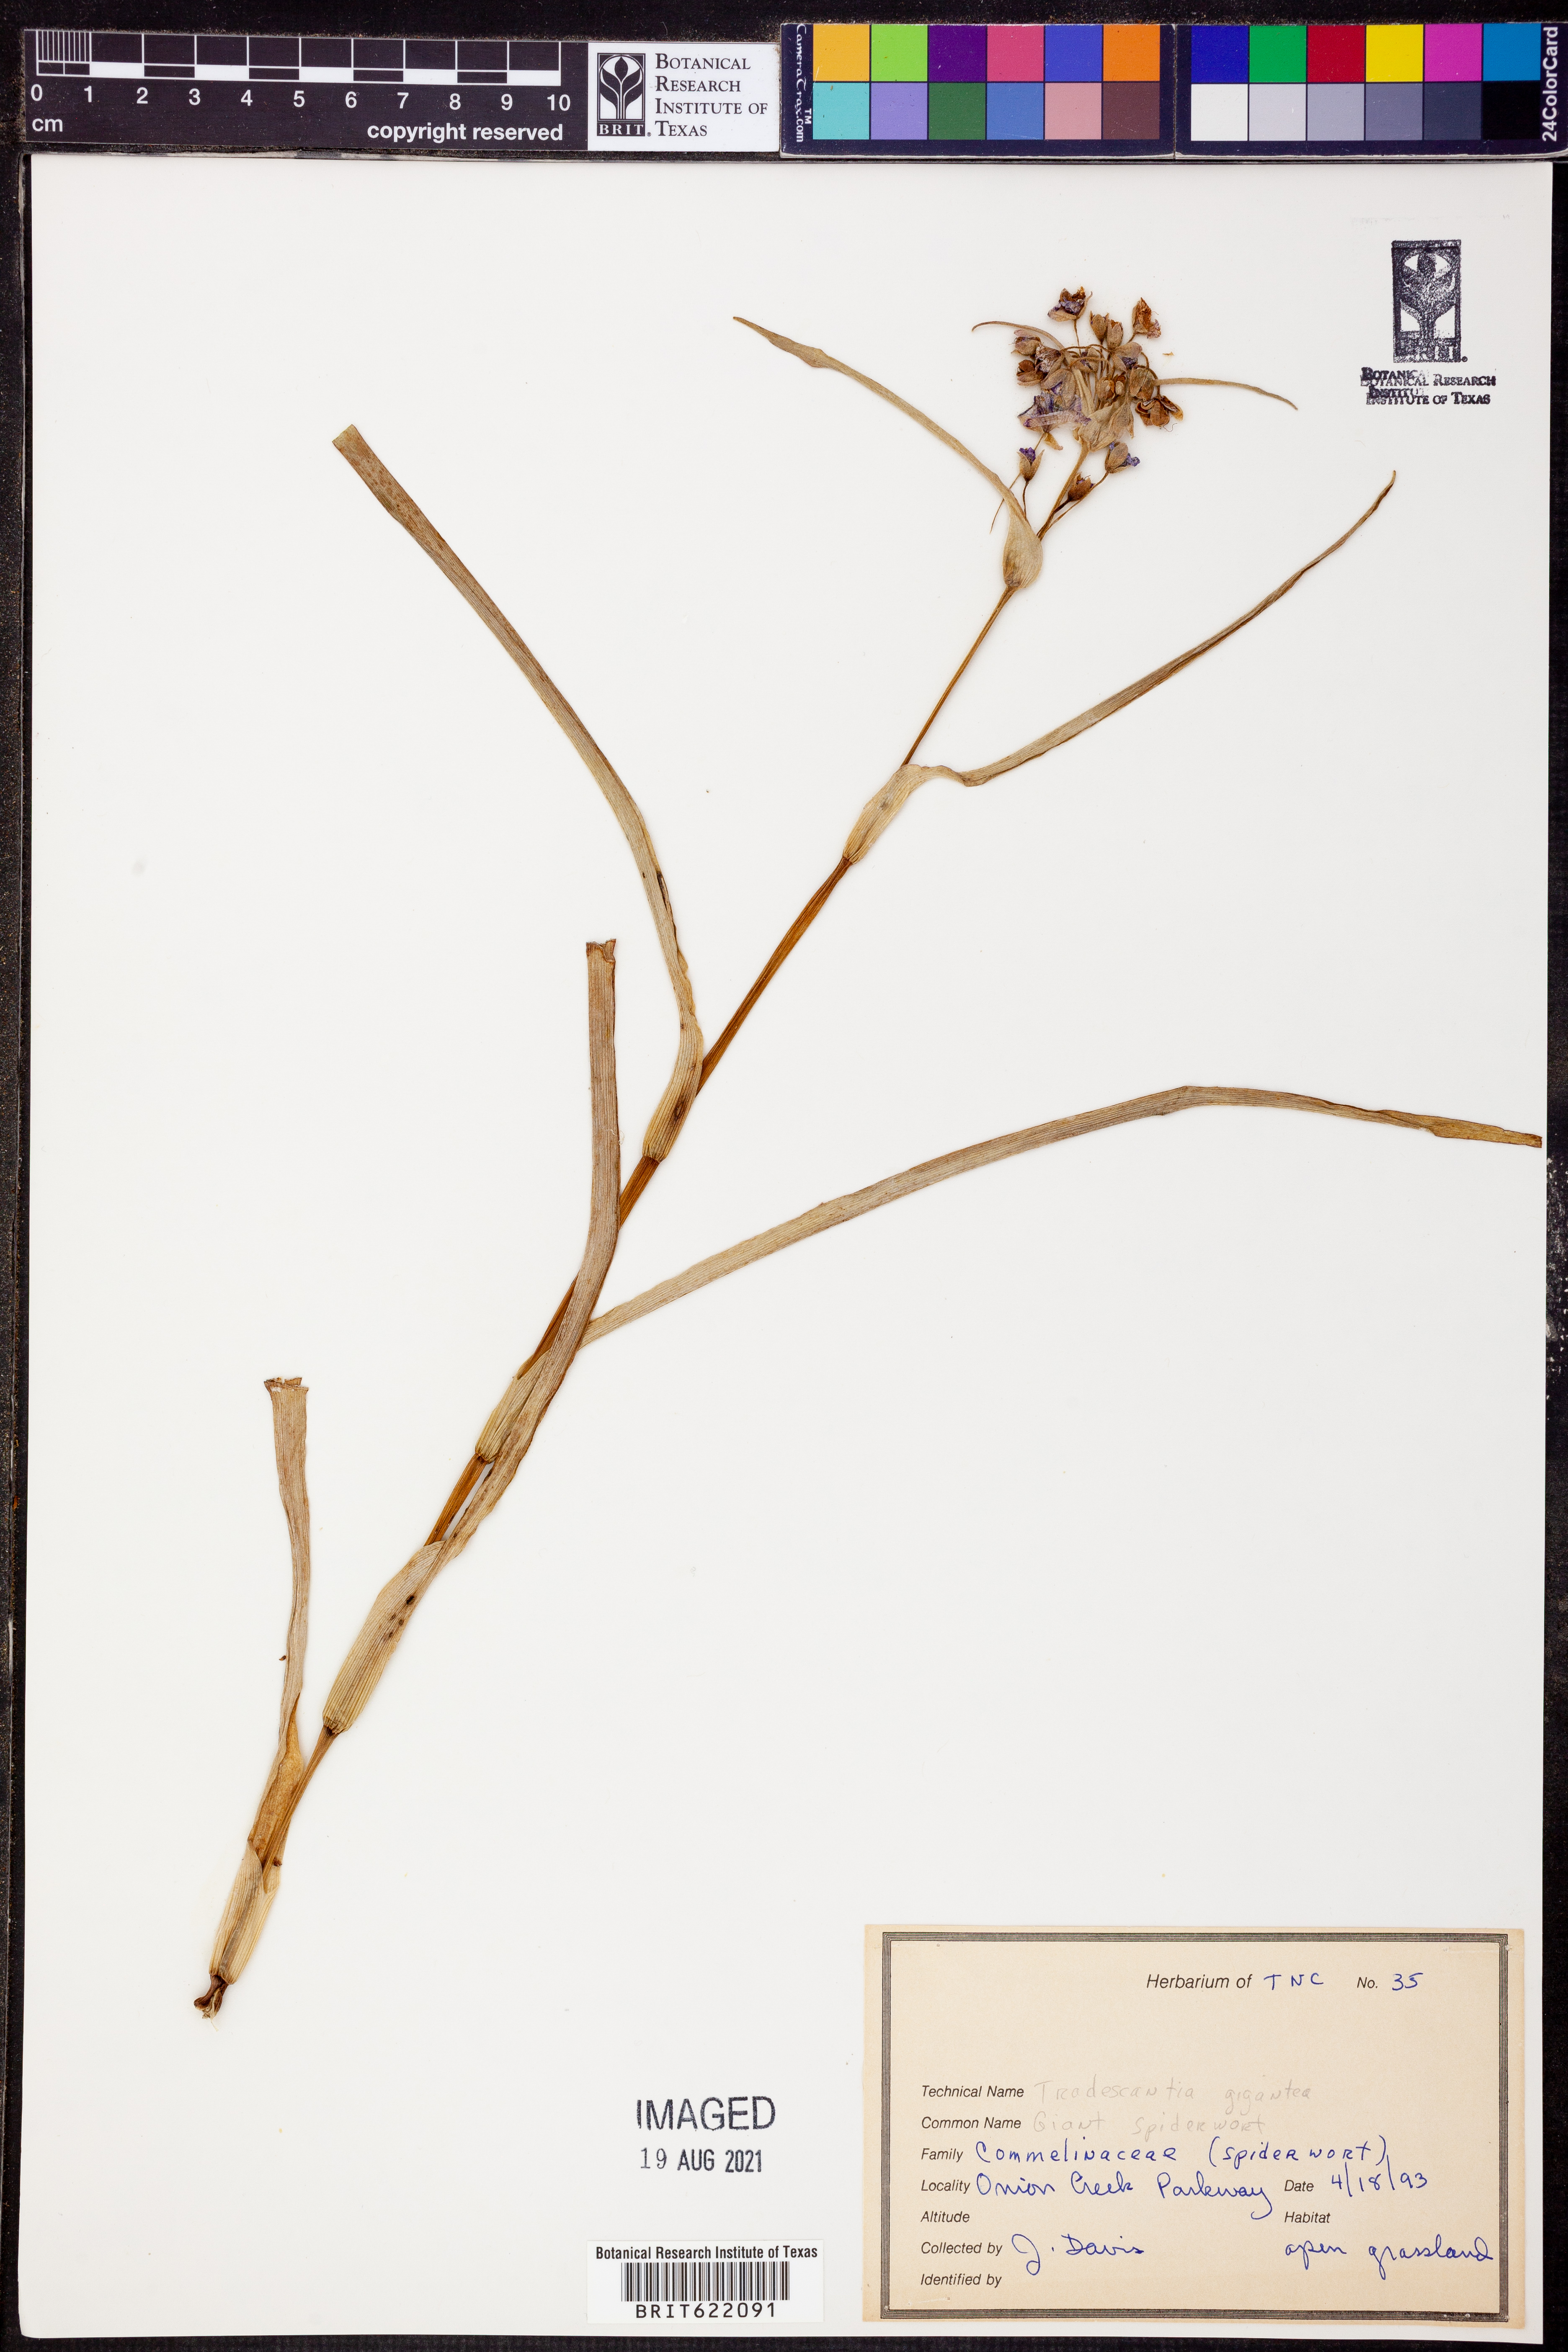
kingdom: Plantae
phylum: Tracheophyta
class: Liliopsida
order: Commelinales
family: Commelinaceae
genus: Tradescantia
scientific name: Tradescantia gigantea
